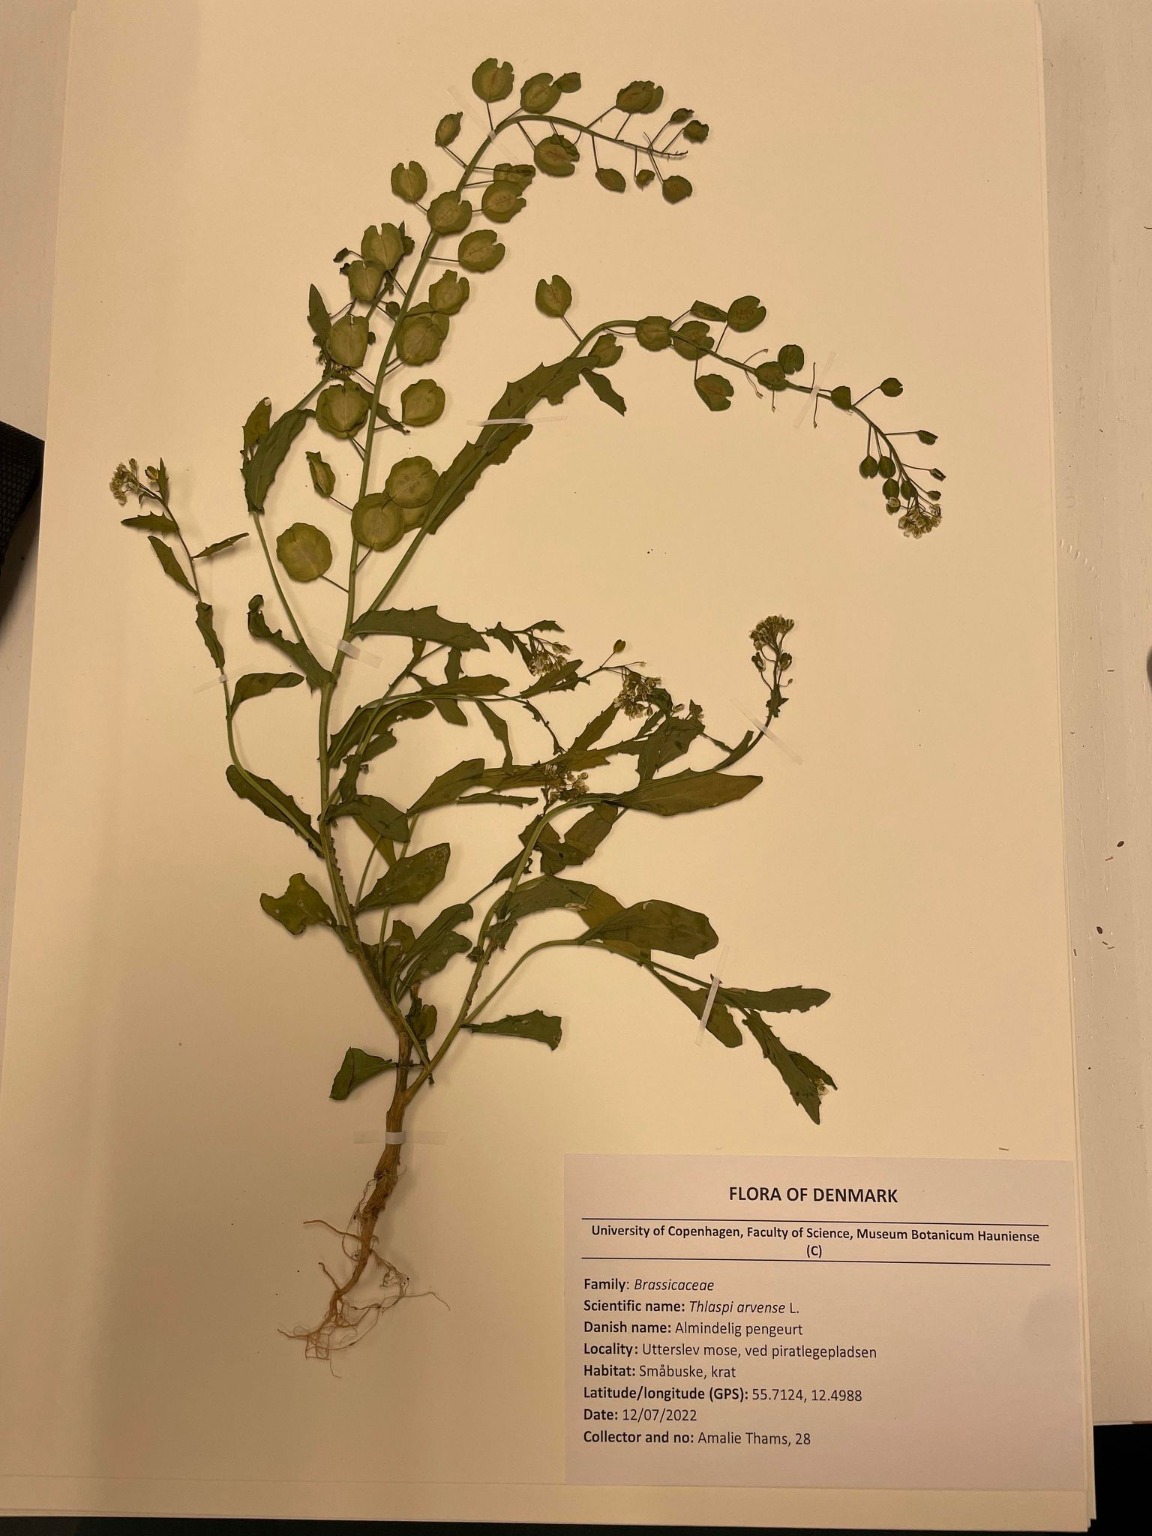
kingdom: Plantae
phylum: Tracheophyta
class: Magnoliopsida
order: Brassicales
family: Brassicaceae
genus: Thlaspi
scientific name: Thlaspi arvense
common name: Almindelig pengeurt
